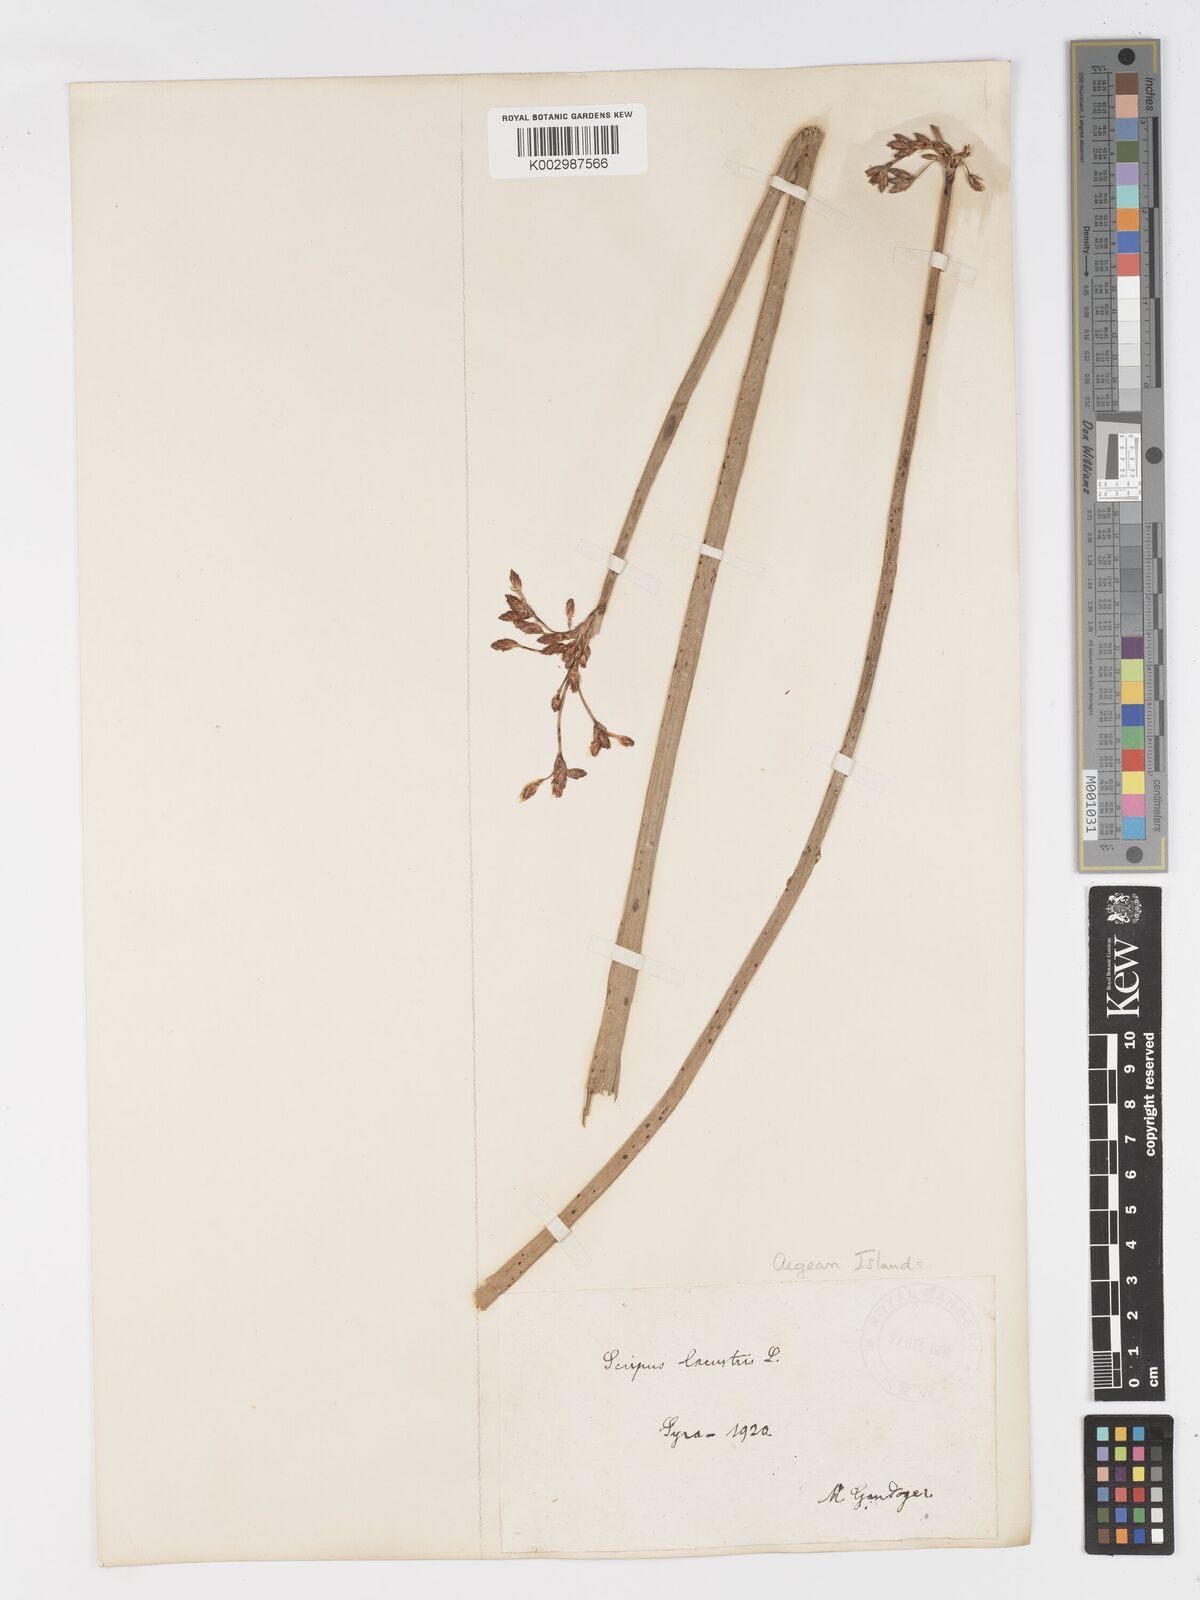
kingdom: Plantae
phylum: Tracheophyta
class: Liliopsida
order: Poales
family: Cyperaceae
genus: Schoenoplectus
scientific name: Schoenoplectus lacustris
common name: Common club-rush
